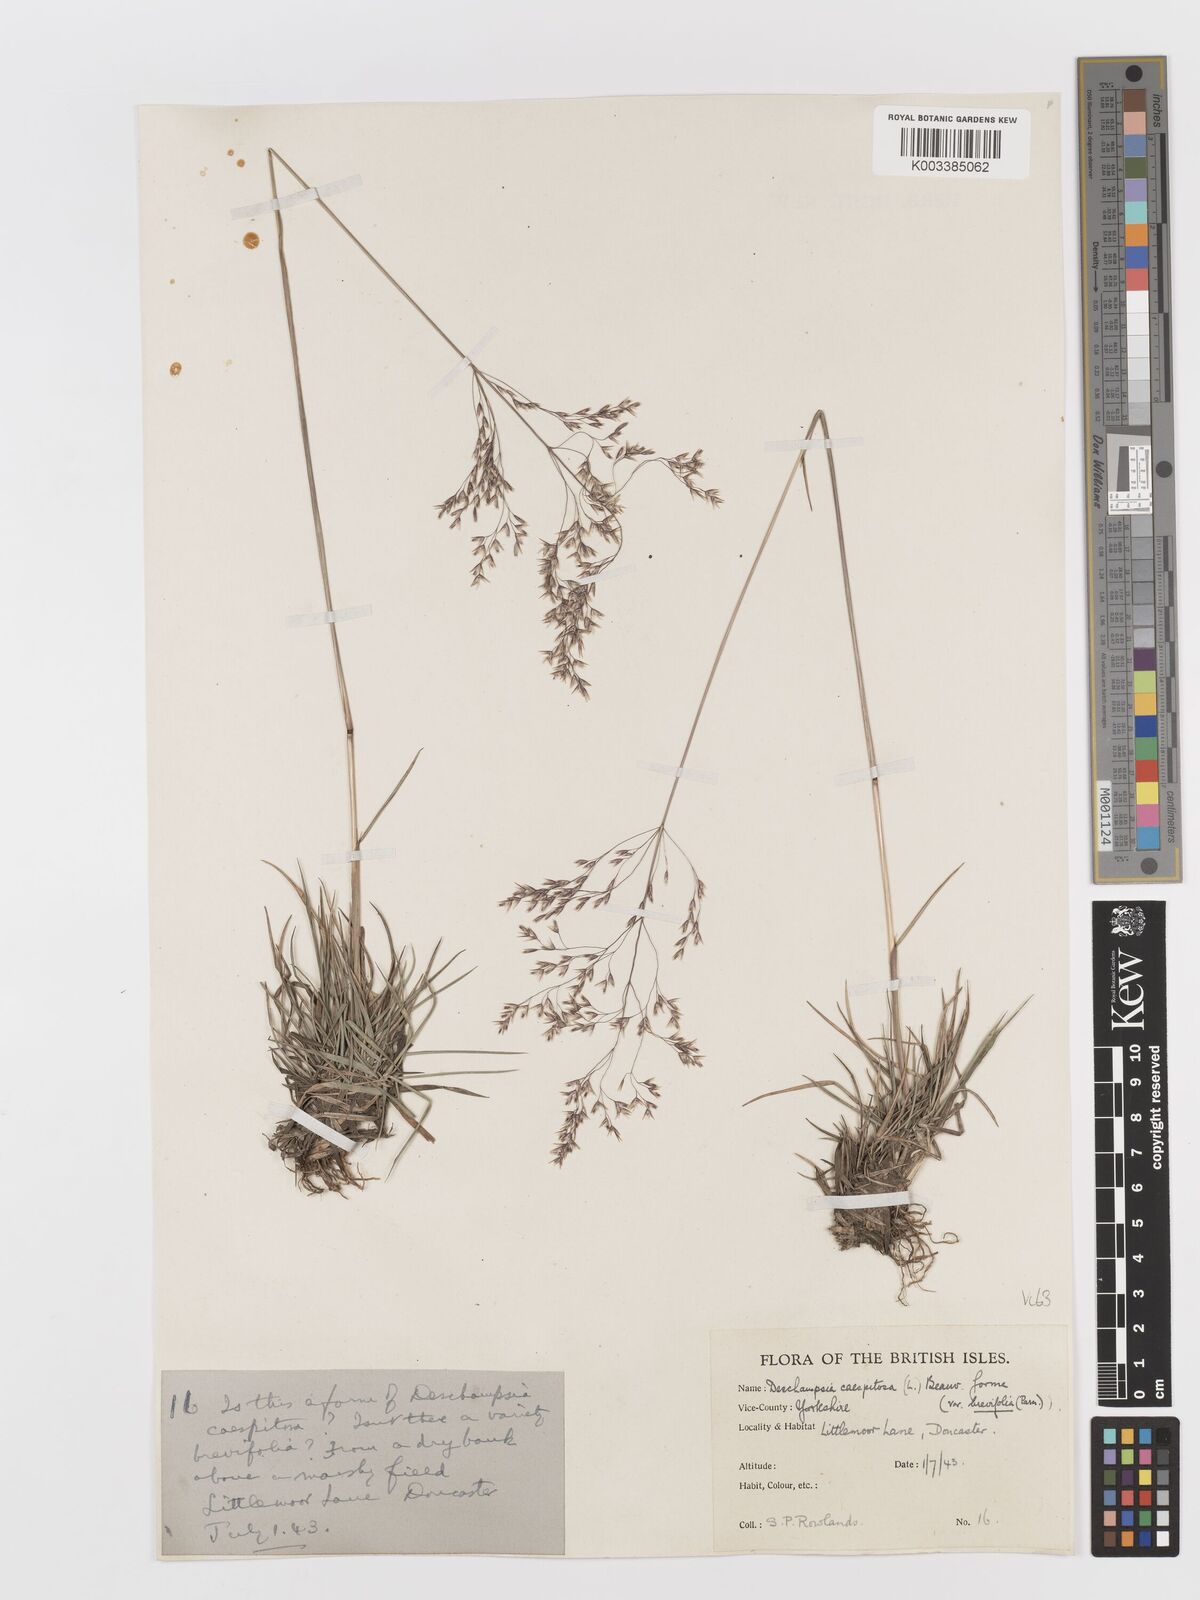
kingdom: Plantae
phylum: Tracheophyta
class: Liliopsida
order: Poales
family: Poaceae
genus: Deschampsia
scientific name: Deschampsia cespitosa
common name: Tufted hair-grass
